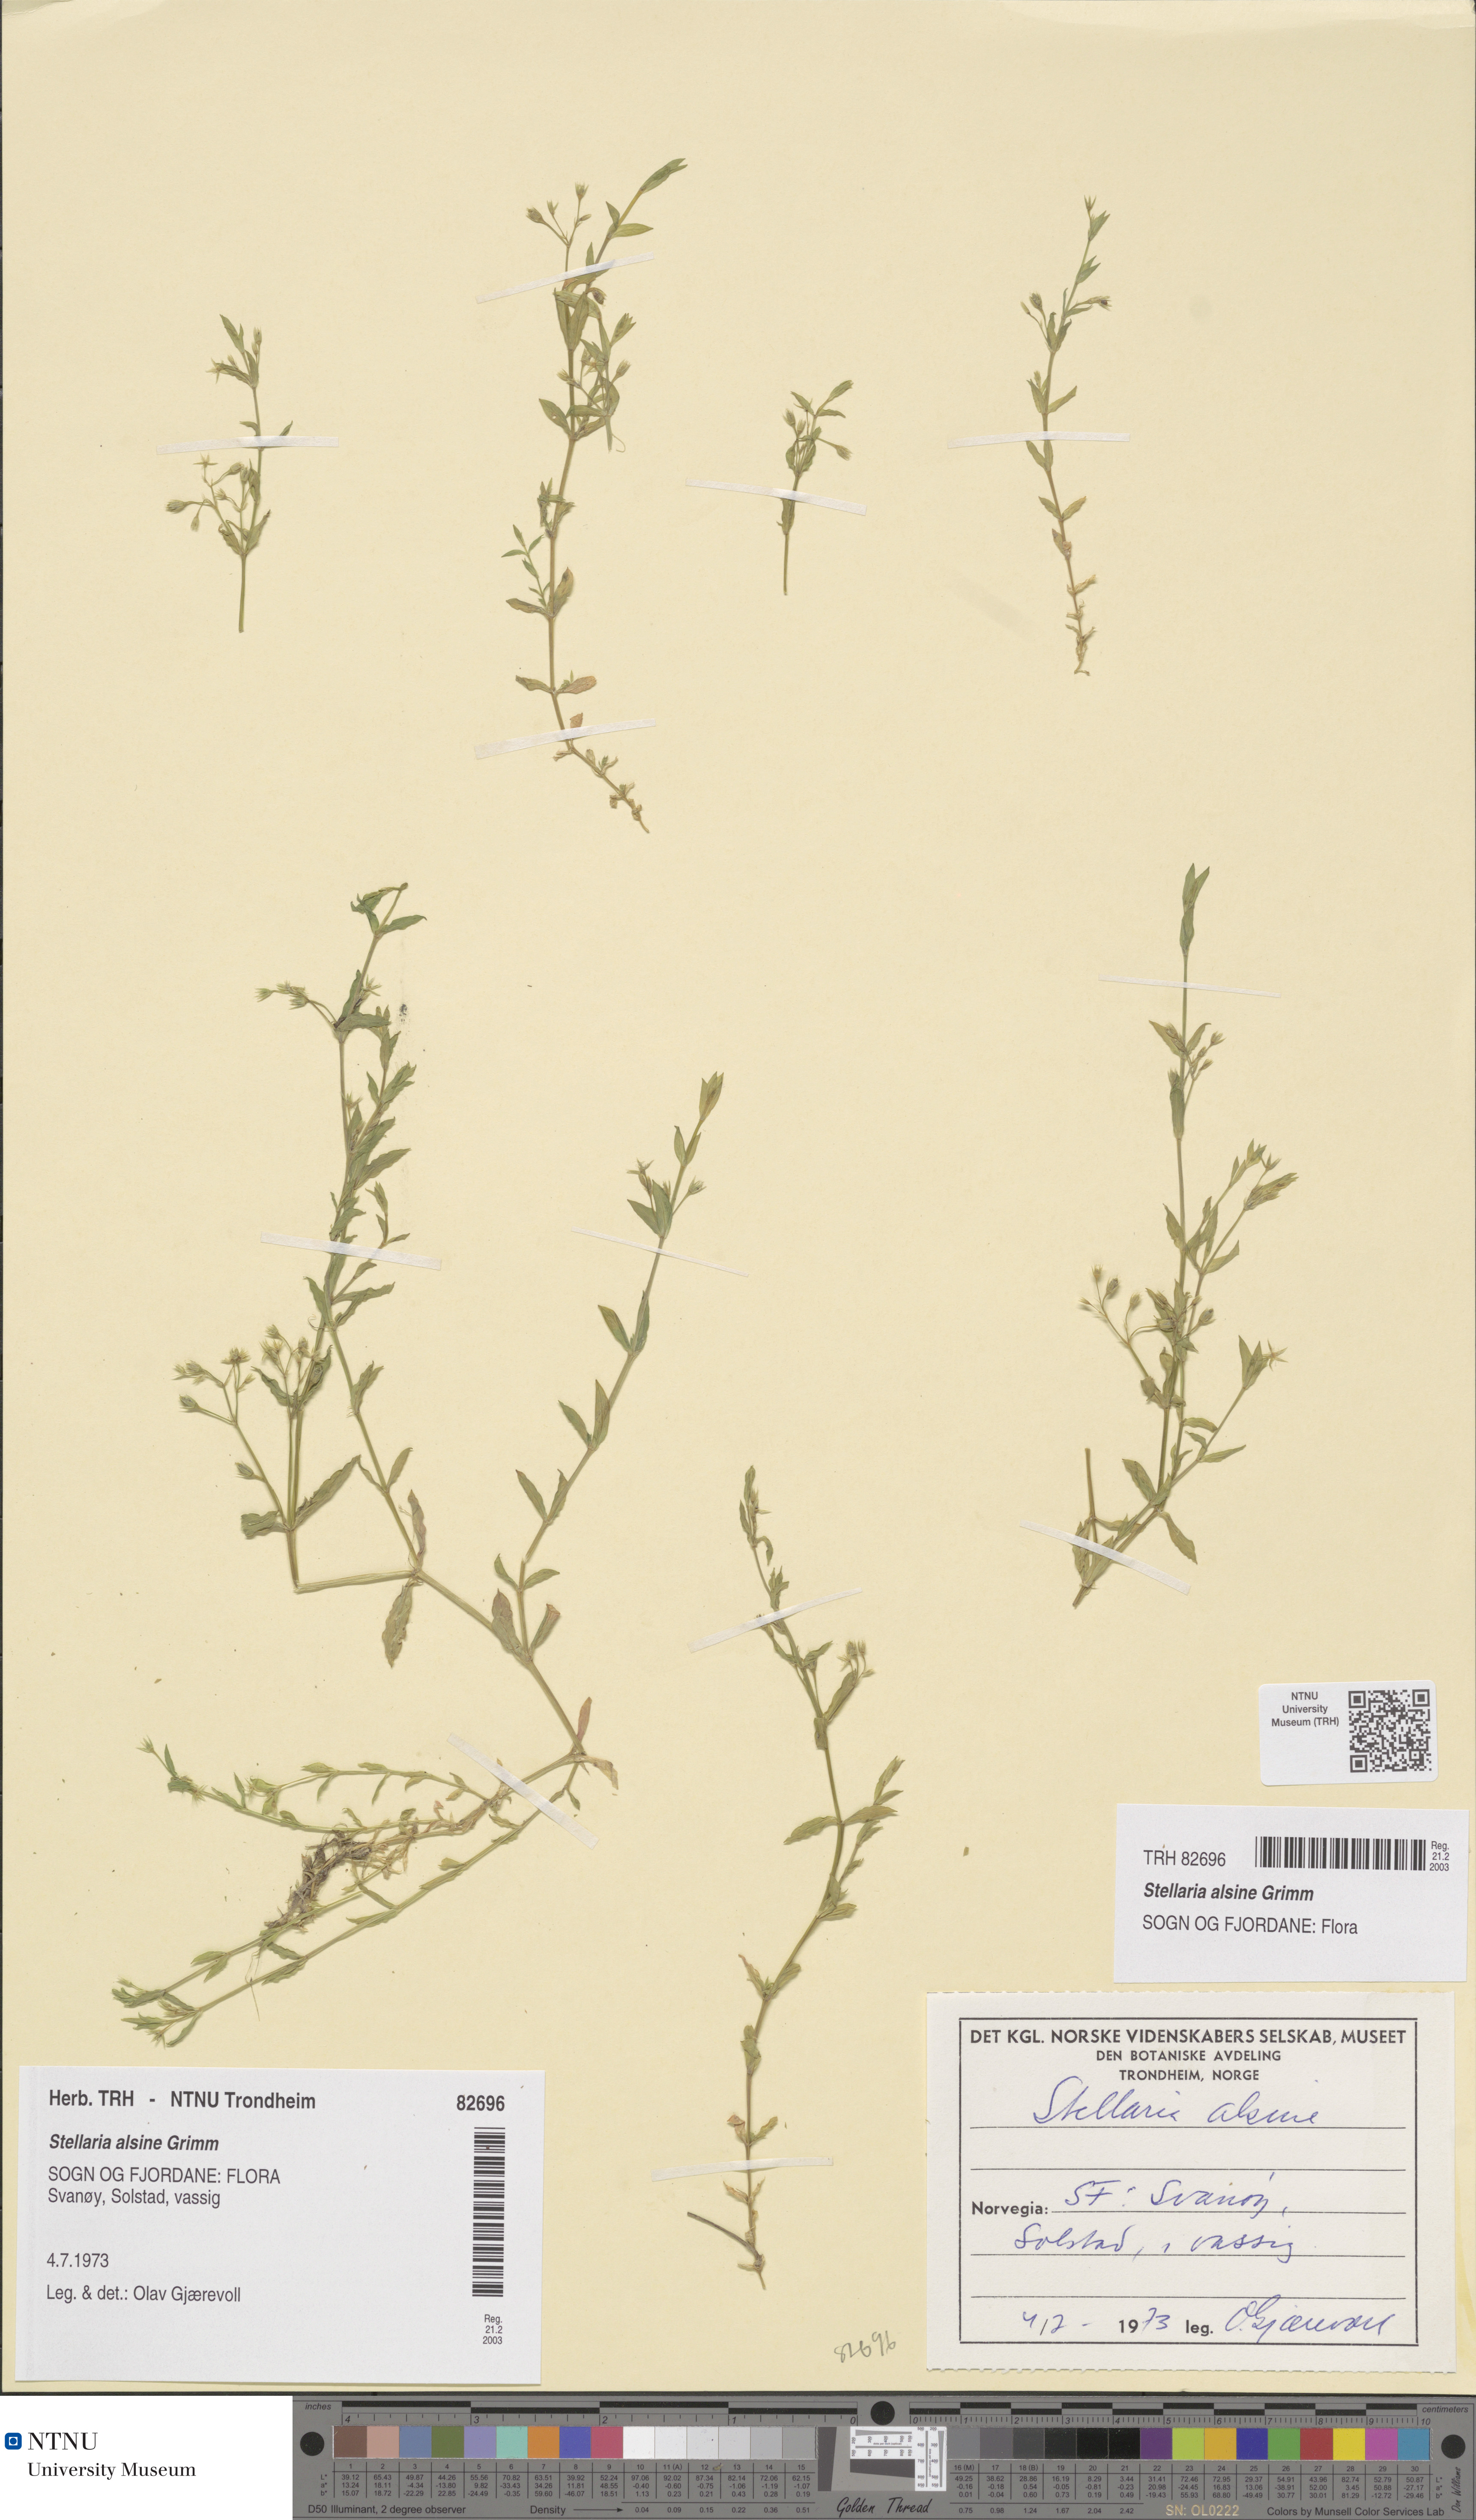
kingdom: Plantae
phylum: Tracheophyta
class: Magnoliopsida
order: Caryophyllales
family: Caryophyllaceae
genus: Stellaria
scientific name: Stellaria alsine
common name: Bog stitchwort
